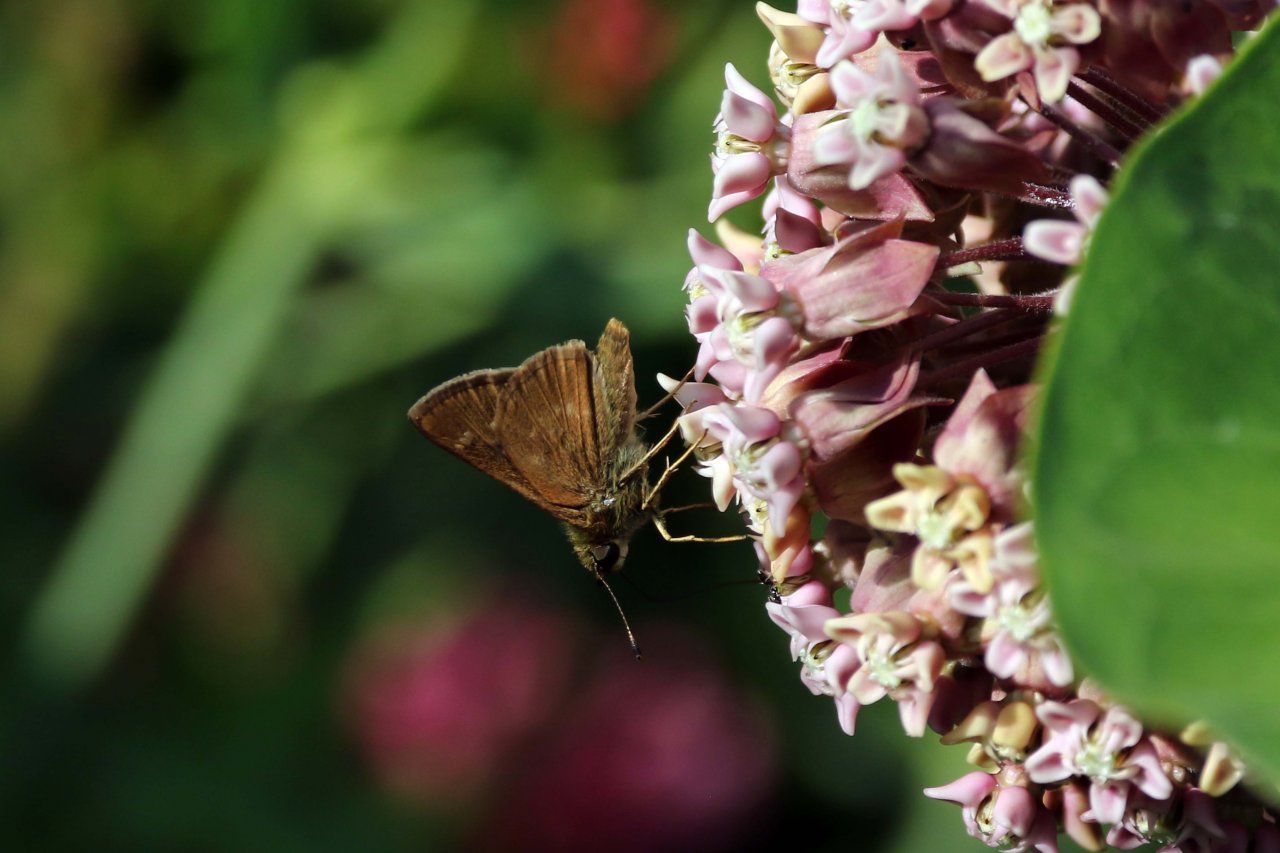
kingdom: Animalia
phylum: Arthropoda
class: Insecta
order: Lepidoptera
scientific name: Lepidoptera
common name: Butterflies
